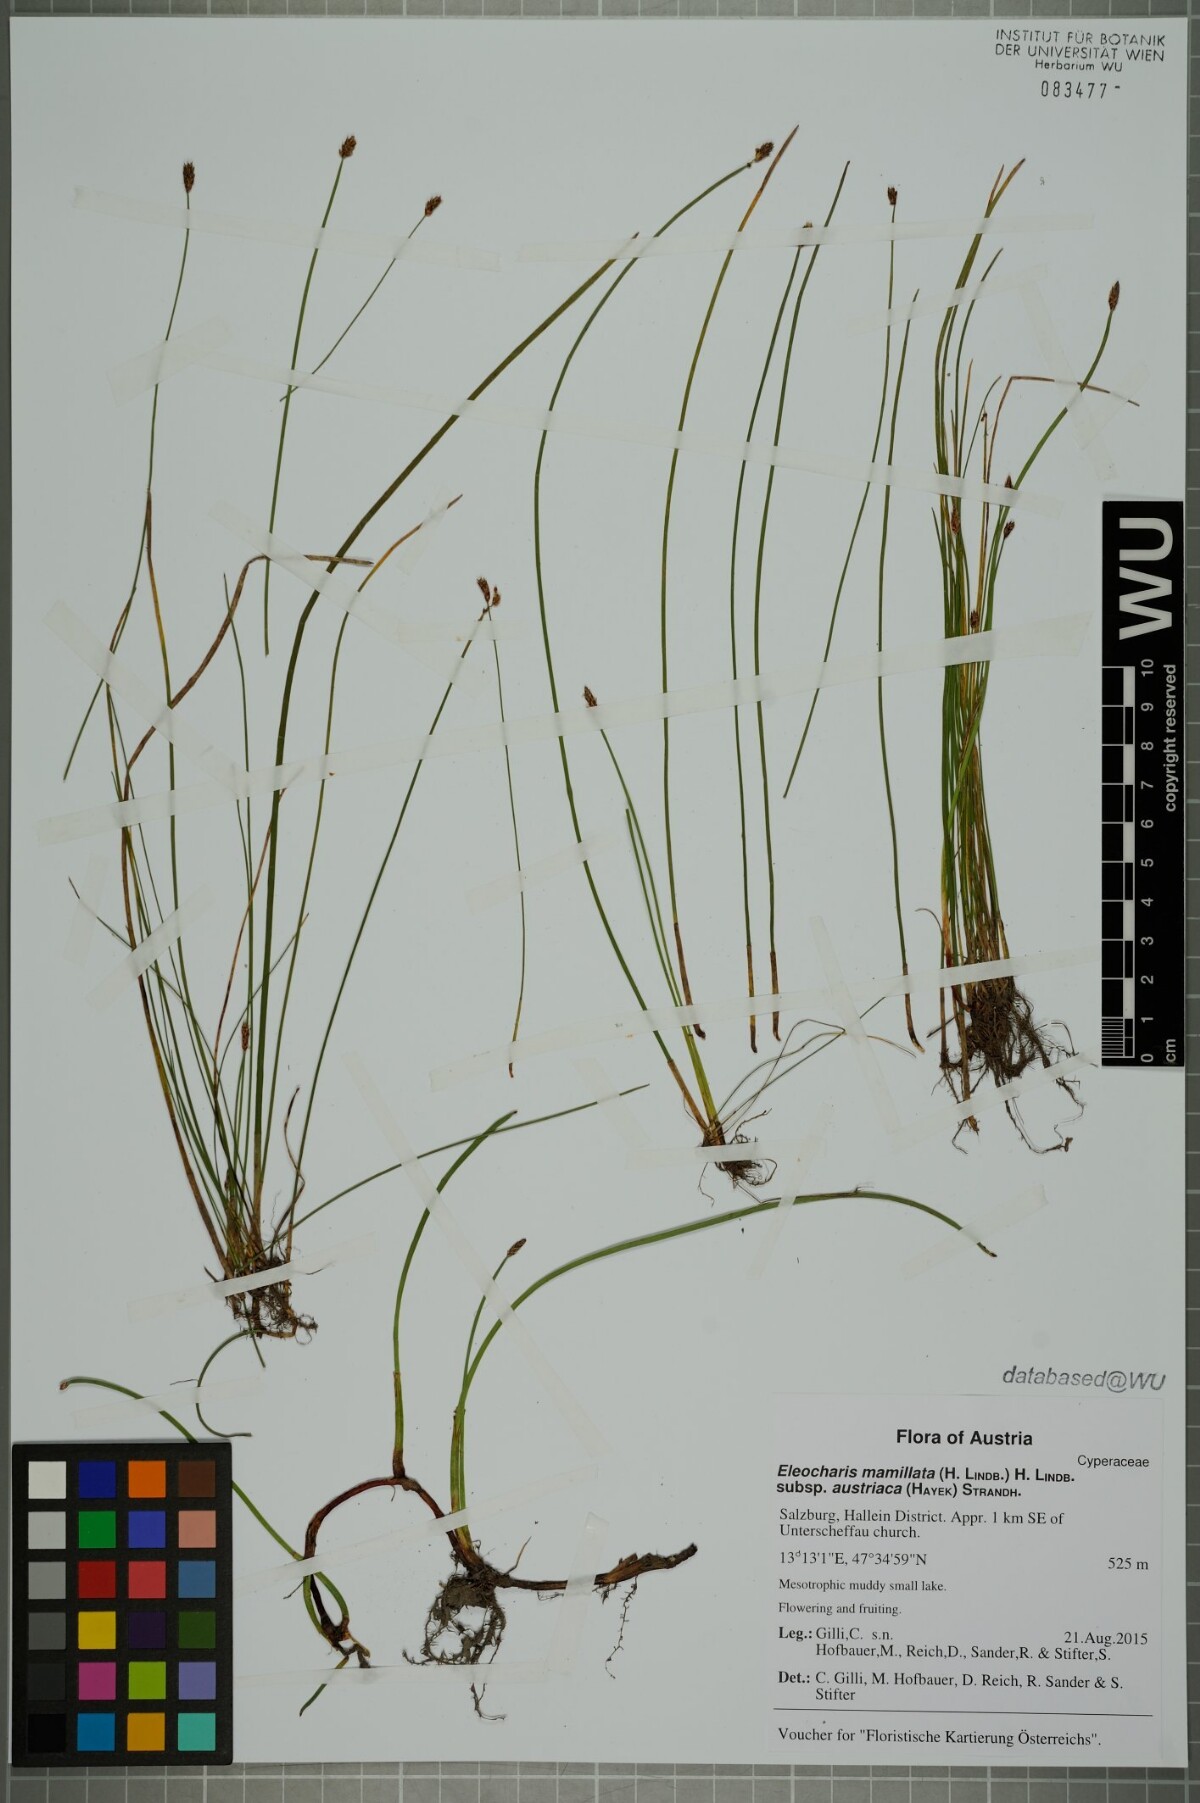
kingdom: Plantae
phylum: Tracheophyta
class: Liliopsida
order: Poales
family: Cyperaceae
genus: Eleocharis
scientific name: Eleocharis mamillata
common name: Northern spike-rush
